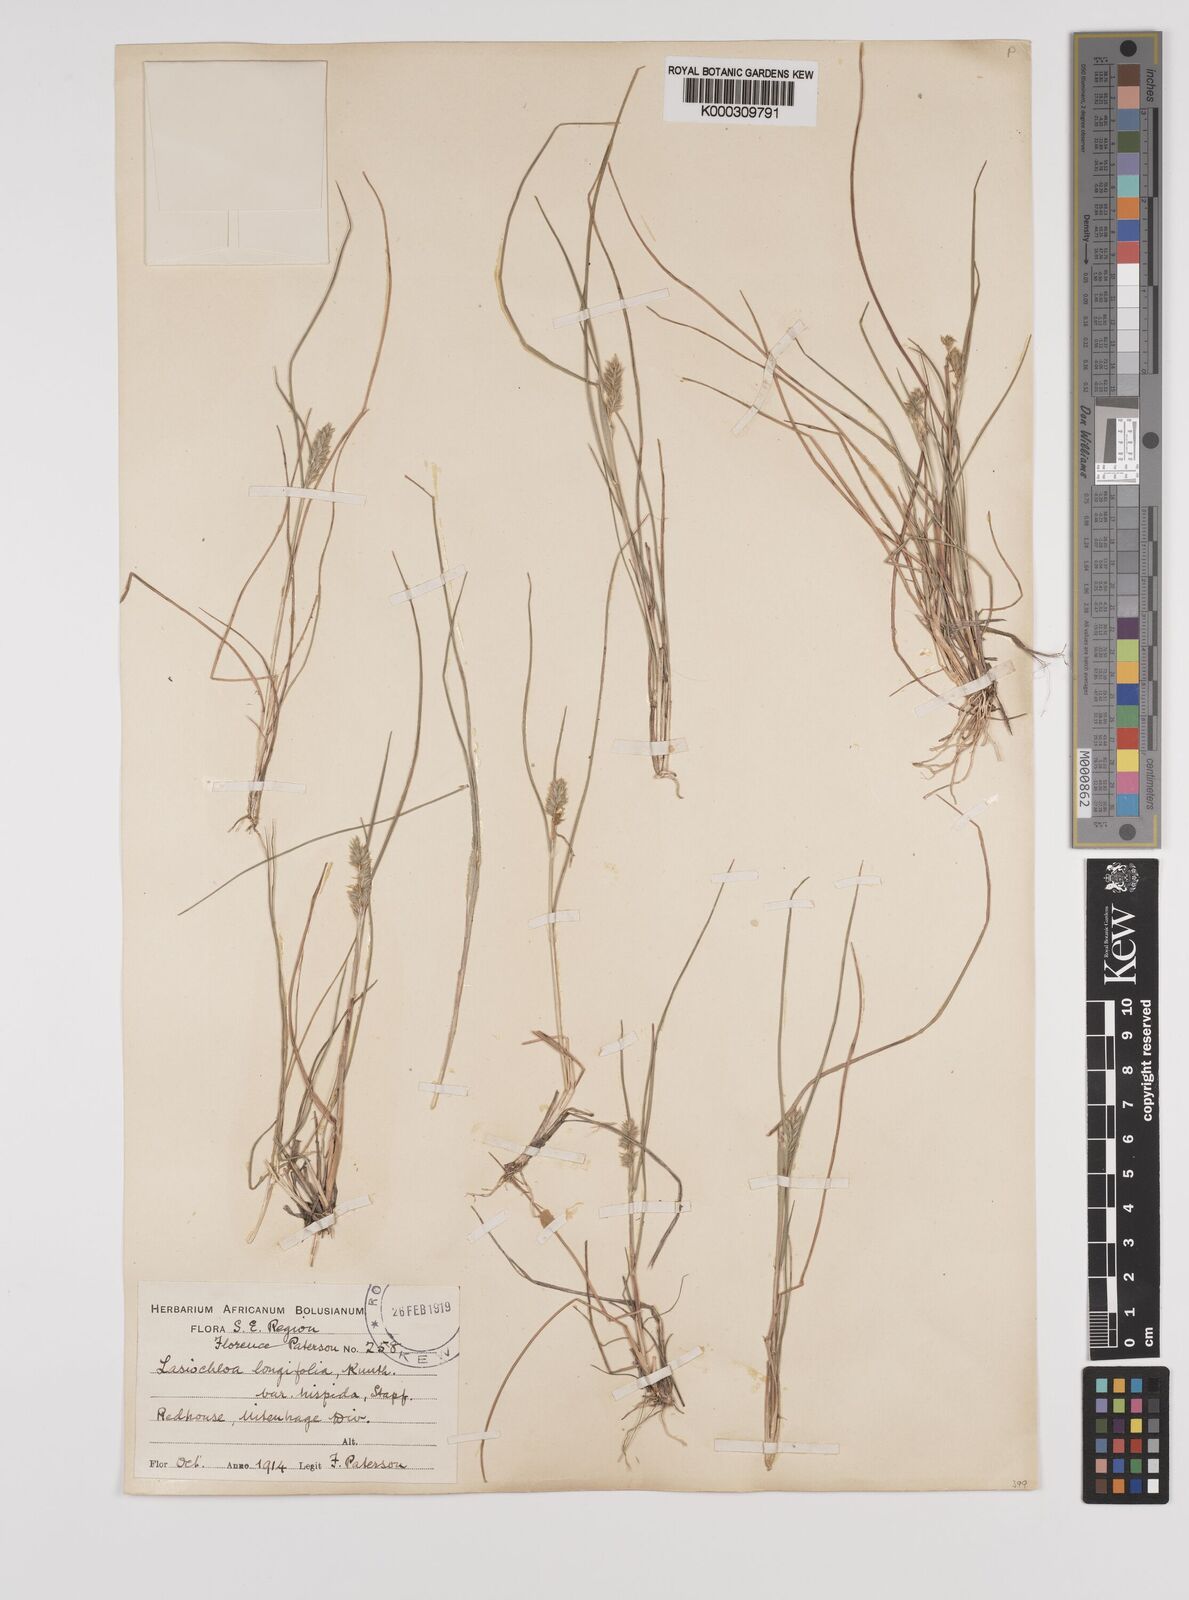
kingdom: Plantae
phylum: Tracheophyta
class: Liliopsida
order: Poales
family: Poaceae
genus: Tribolium
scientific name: Tribolium hispidum
